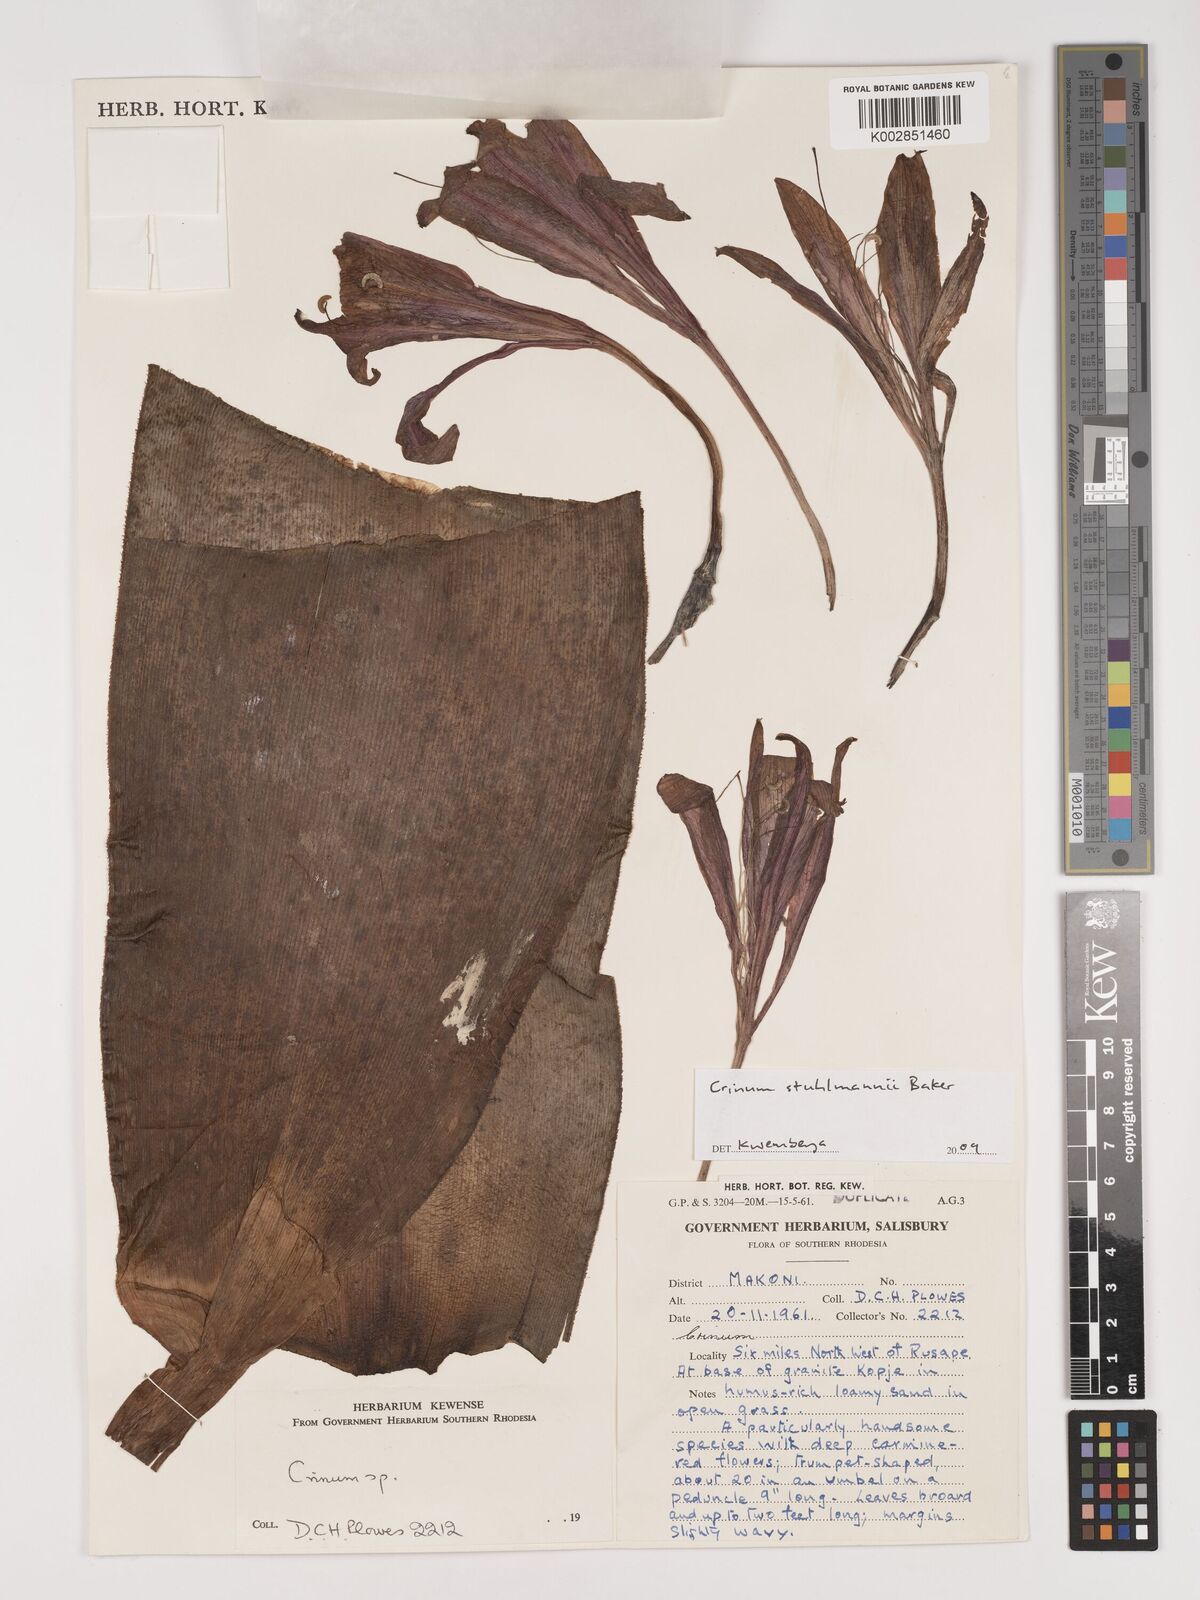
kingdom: Plantae
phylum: Tracheophyta
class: Liliopsida
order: Asparagales
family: Amaryllidaceae
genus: Crinum
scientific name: Crinum stuhlmannii
